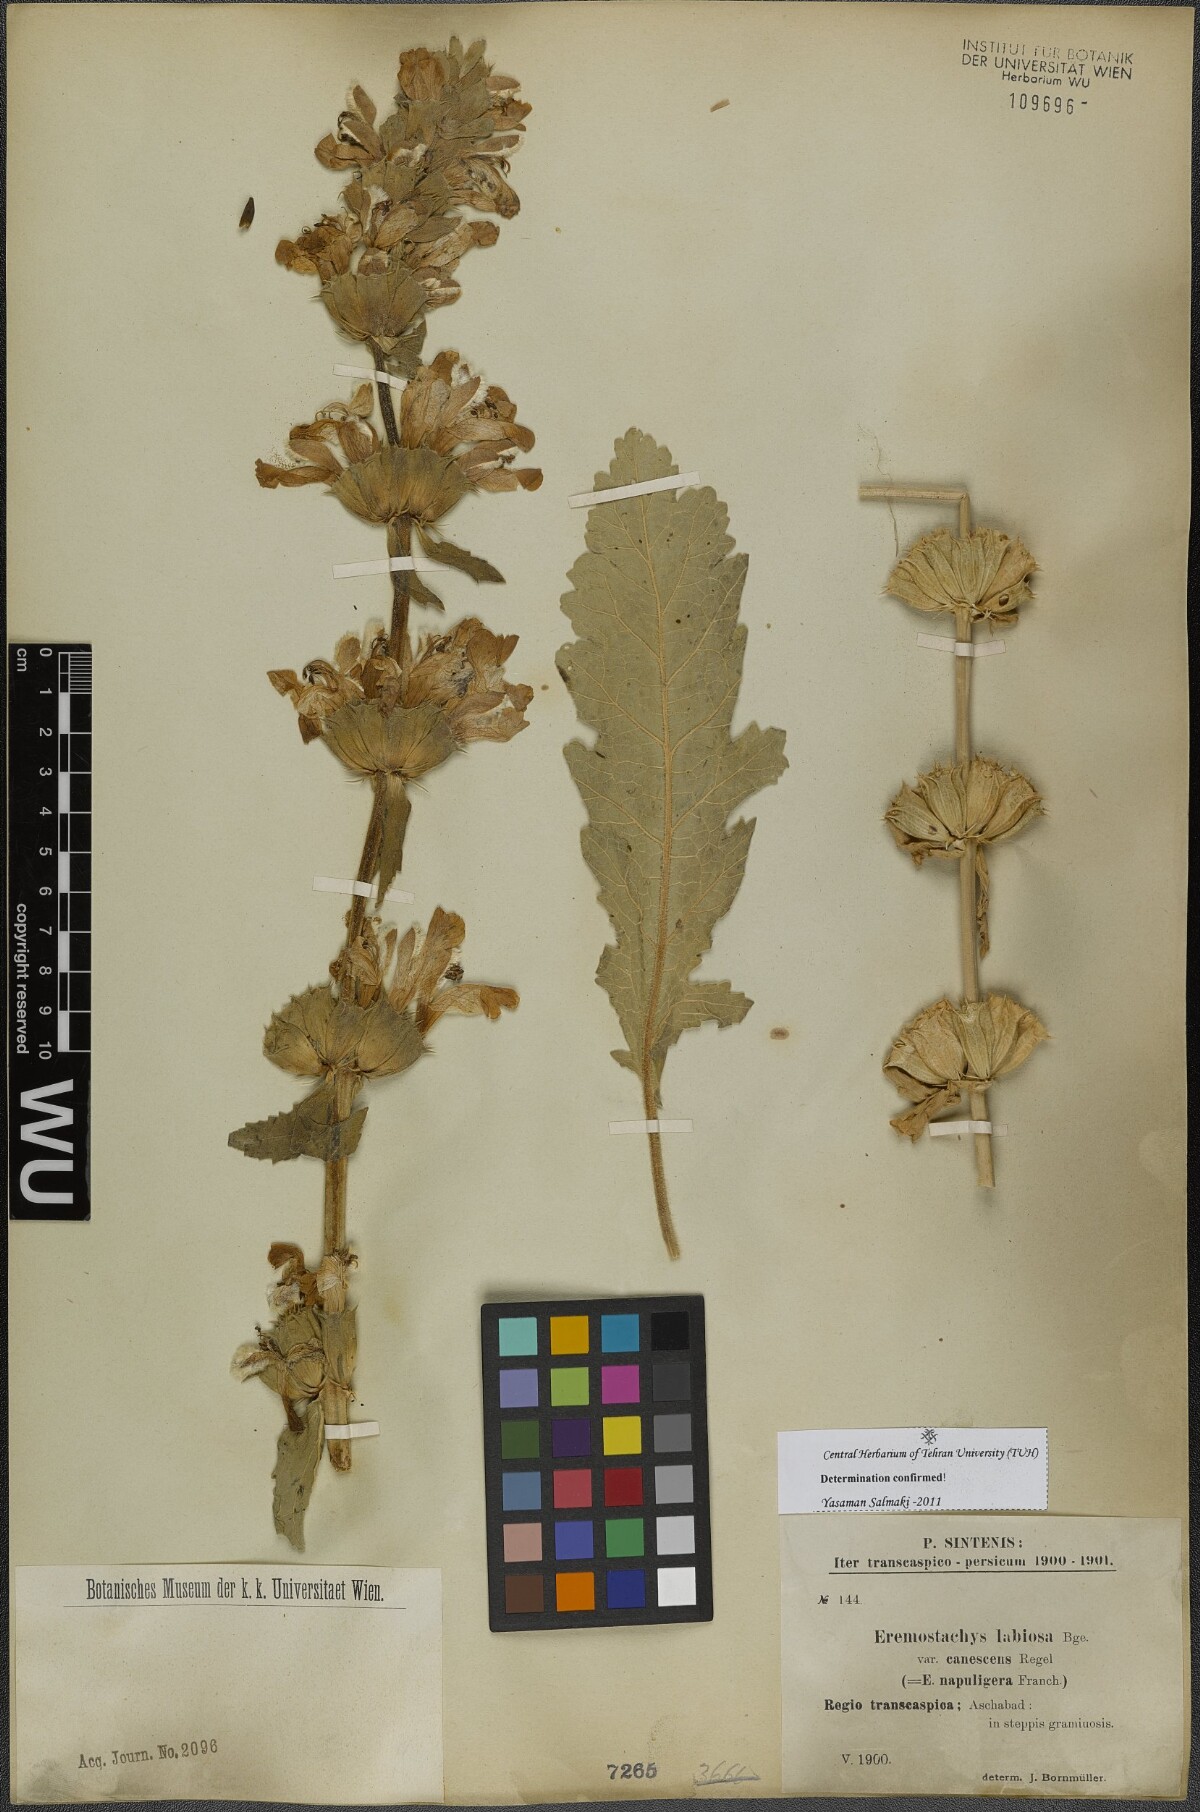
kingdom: Plantae
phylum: Tracheophyta
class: Magnoliopsida
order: Lamiales
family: Lamiaceae
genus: Phlomoides
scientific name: Phlomoides labiosa
